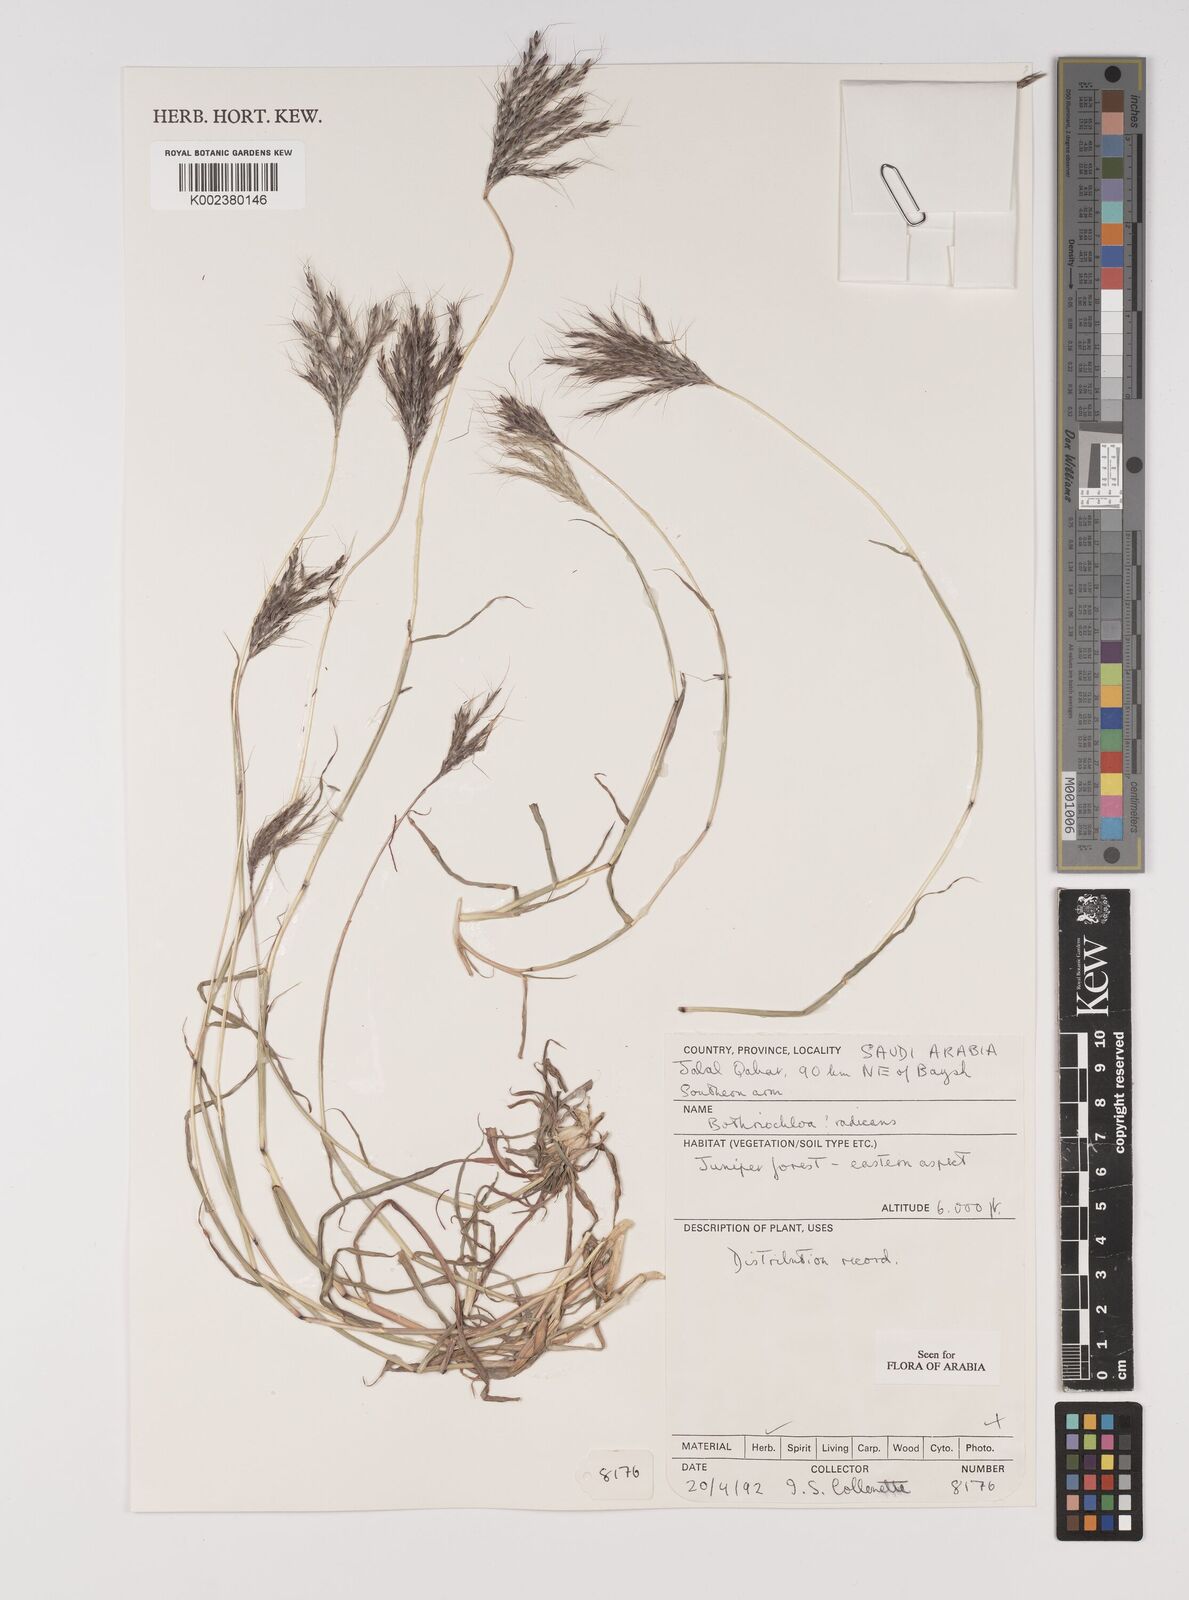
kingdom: Plantae
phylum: Tracheophyta
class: Liliopsida
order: Poales
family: Poaceae
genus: Bothriochloa
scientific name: Bothriochloa radicans
